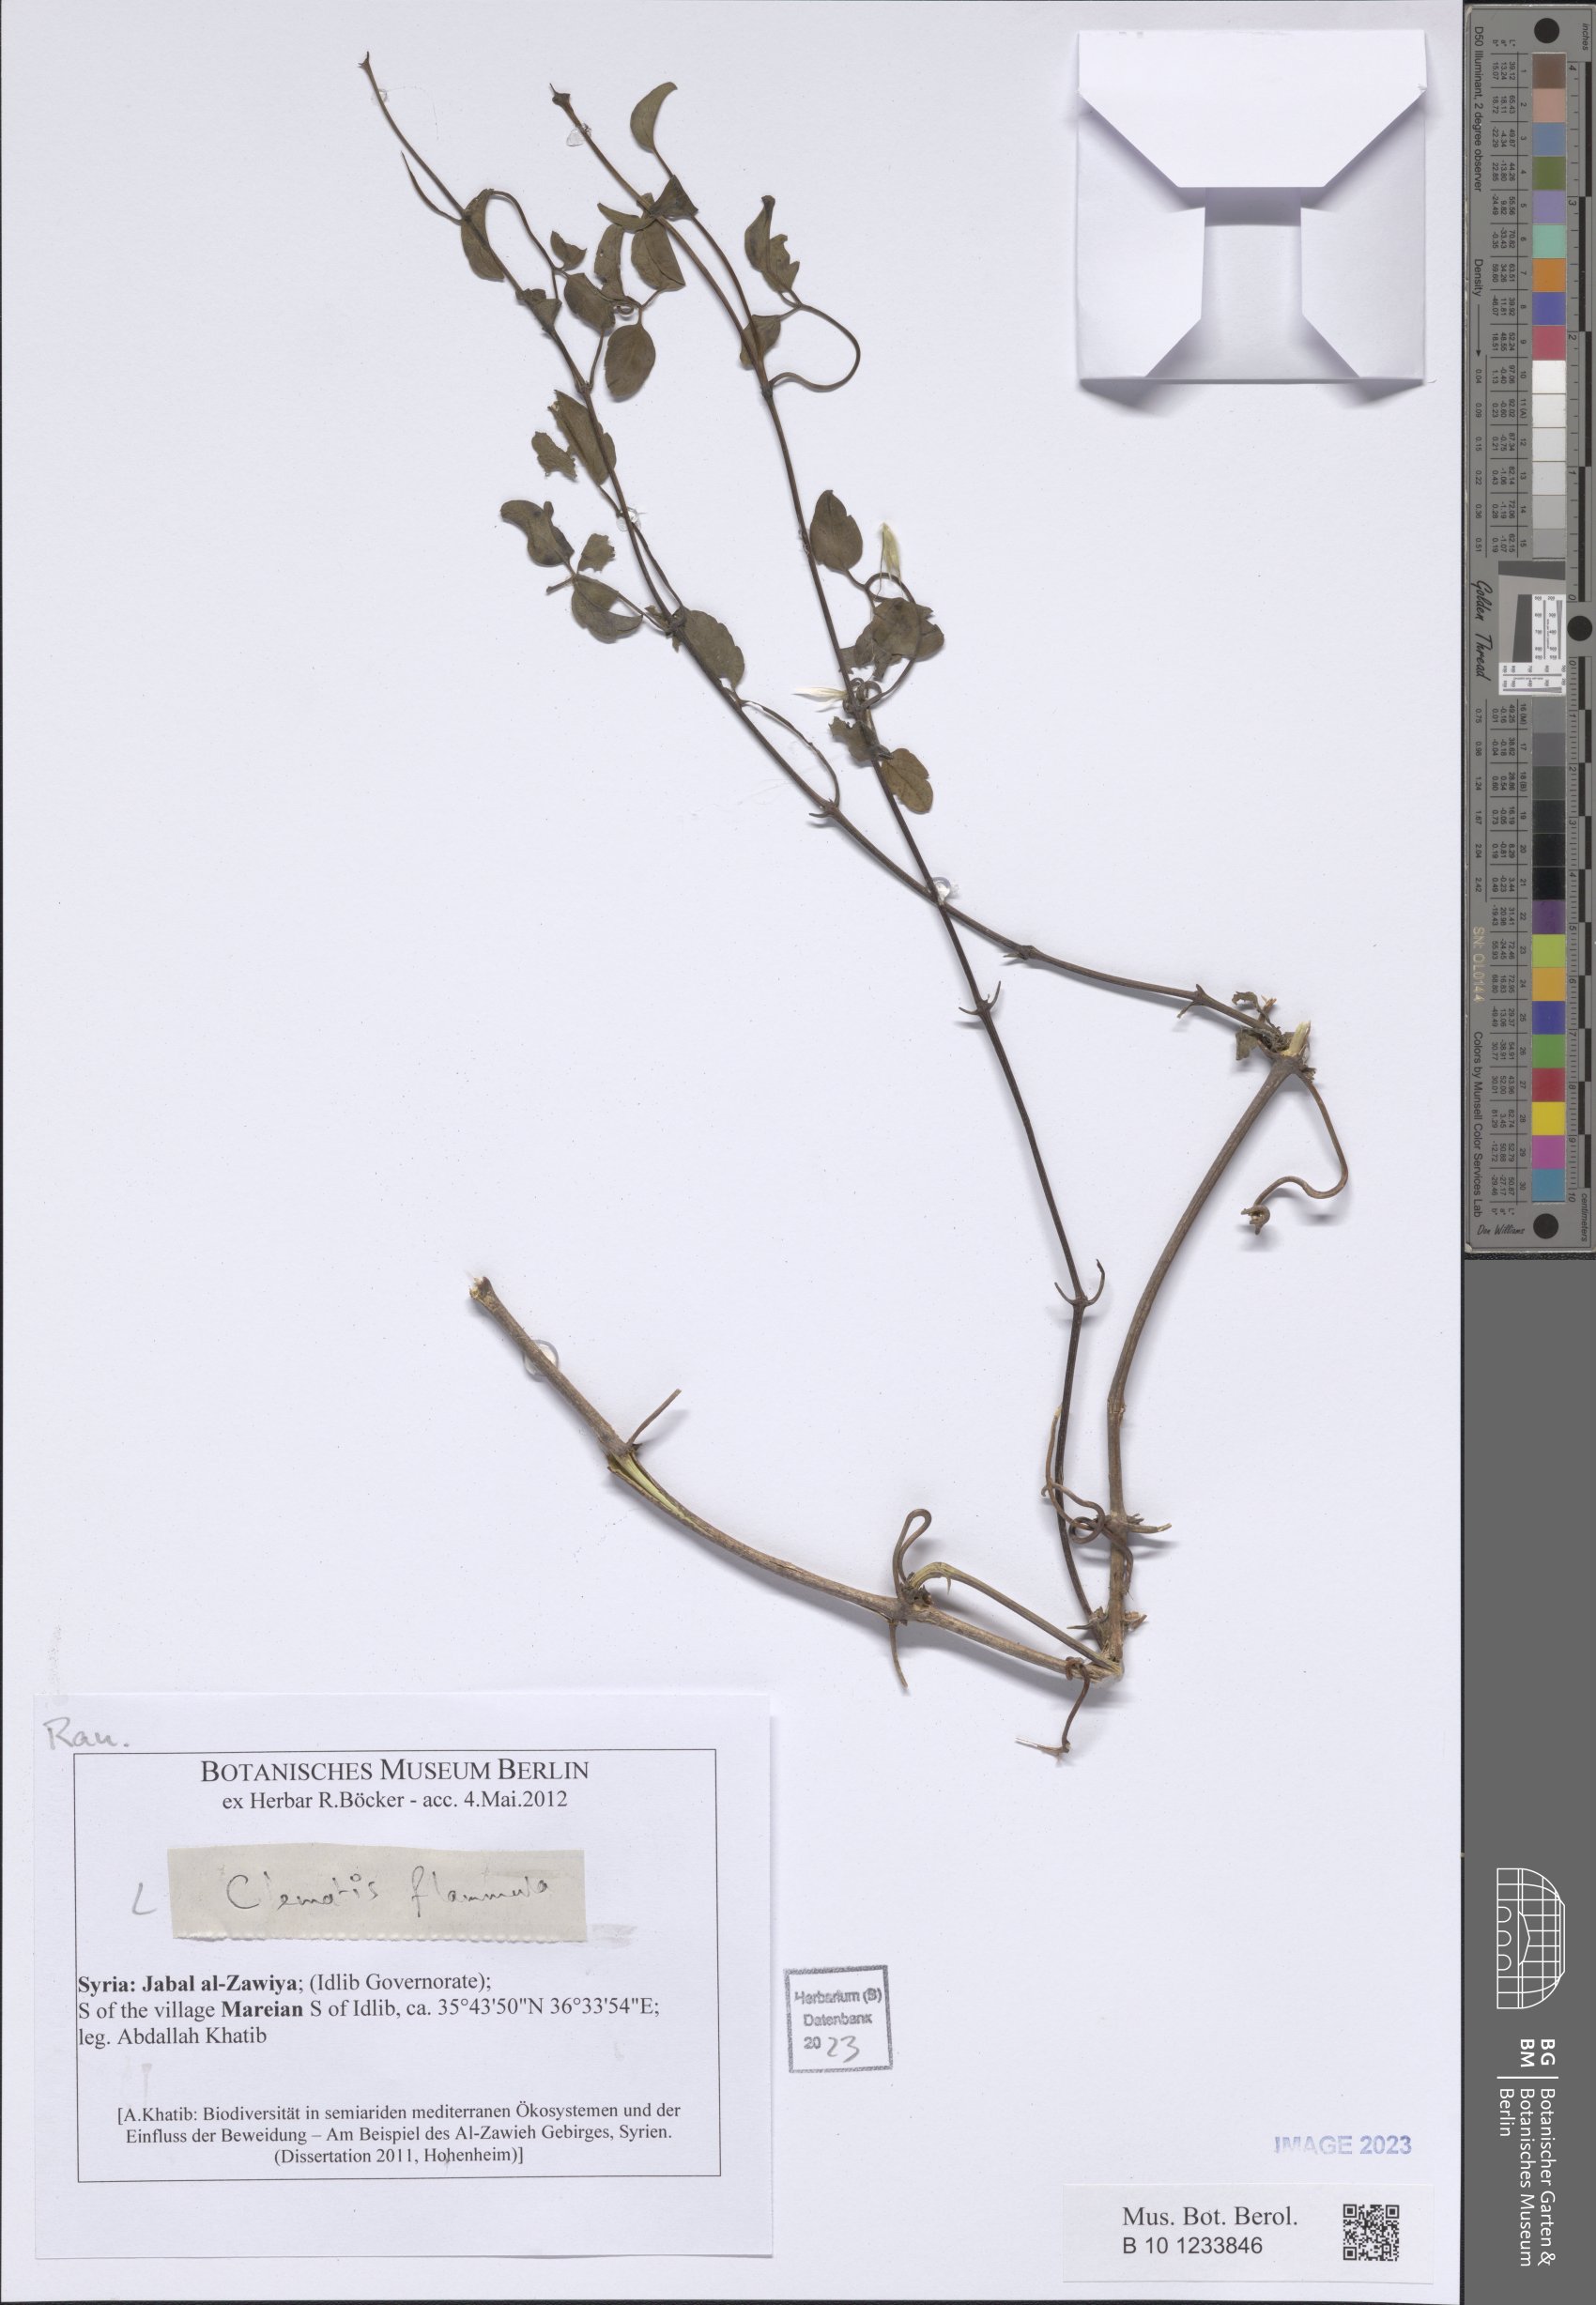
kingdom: Plantae
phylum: Tracheophyta
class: Magnoliopsida
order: Ranunculales
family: Ranunculaceae
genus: Clematis
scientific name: Clematis flammula
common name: Virgin's-bower
